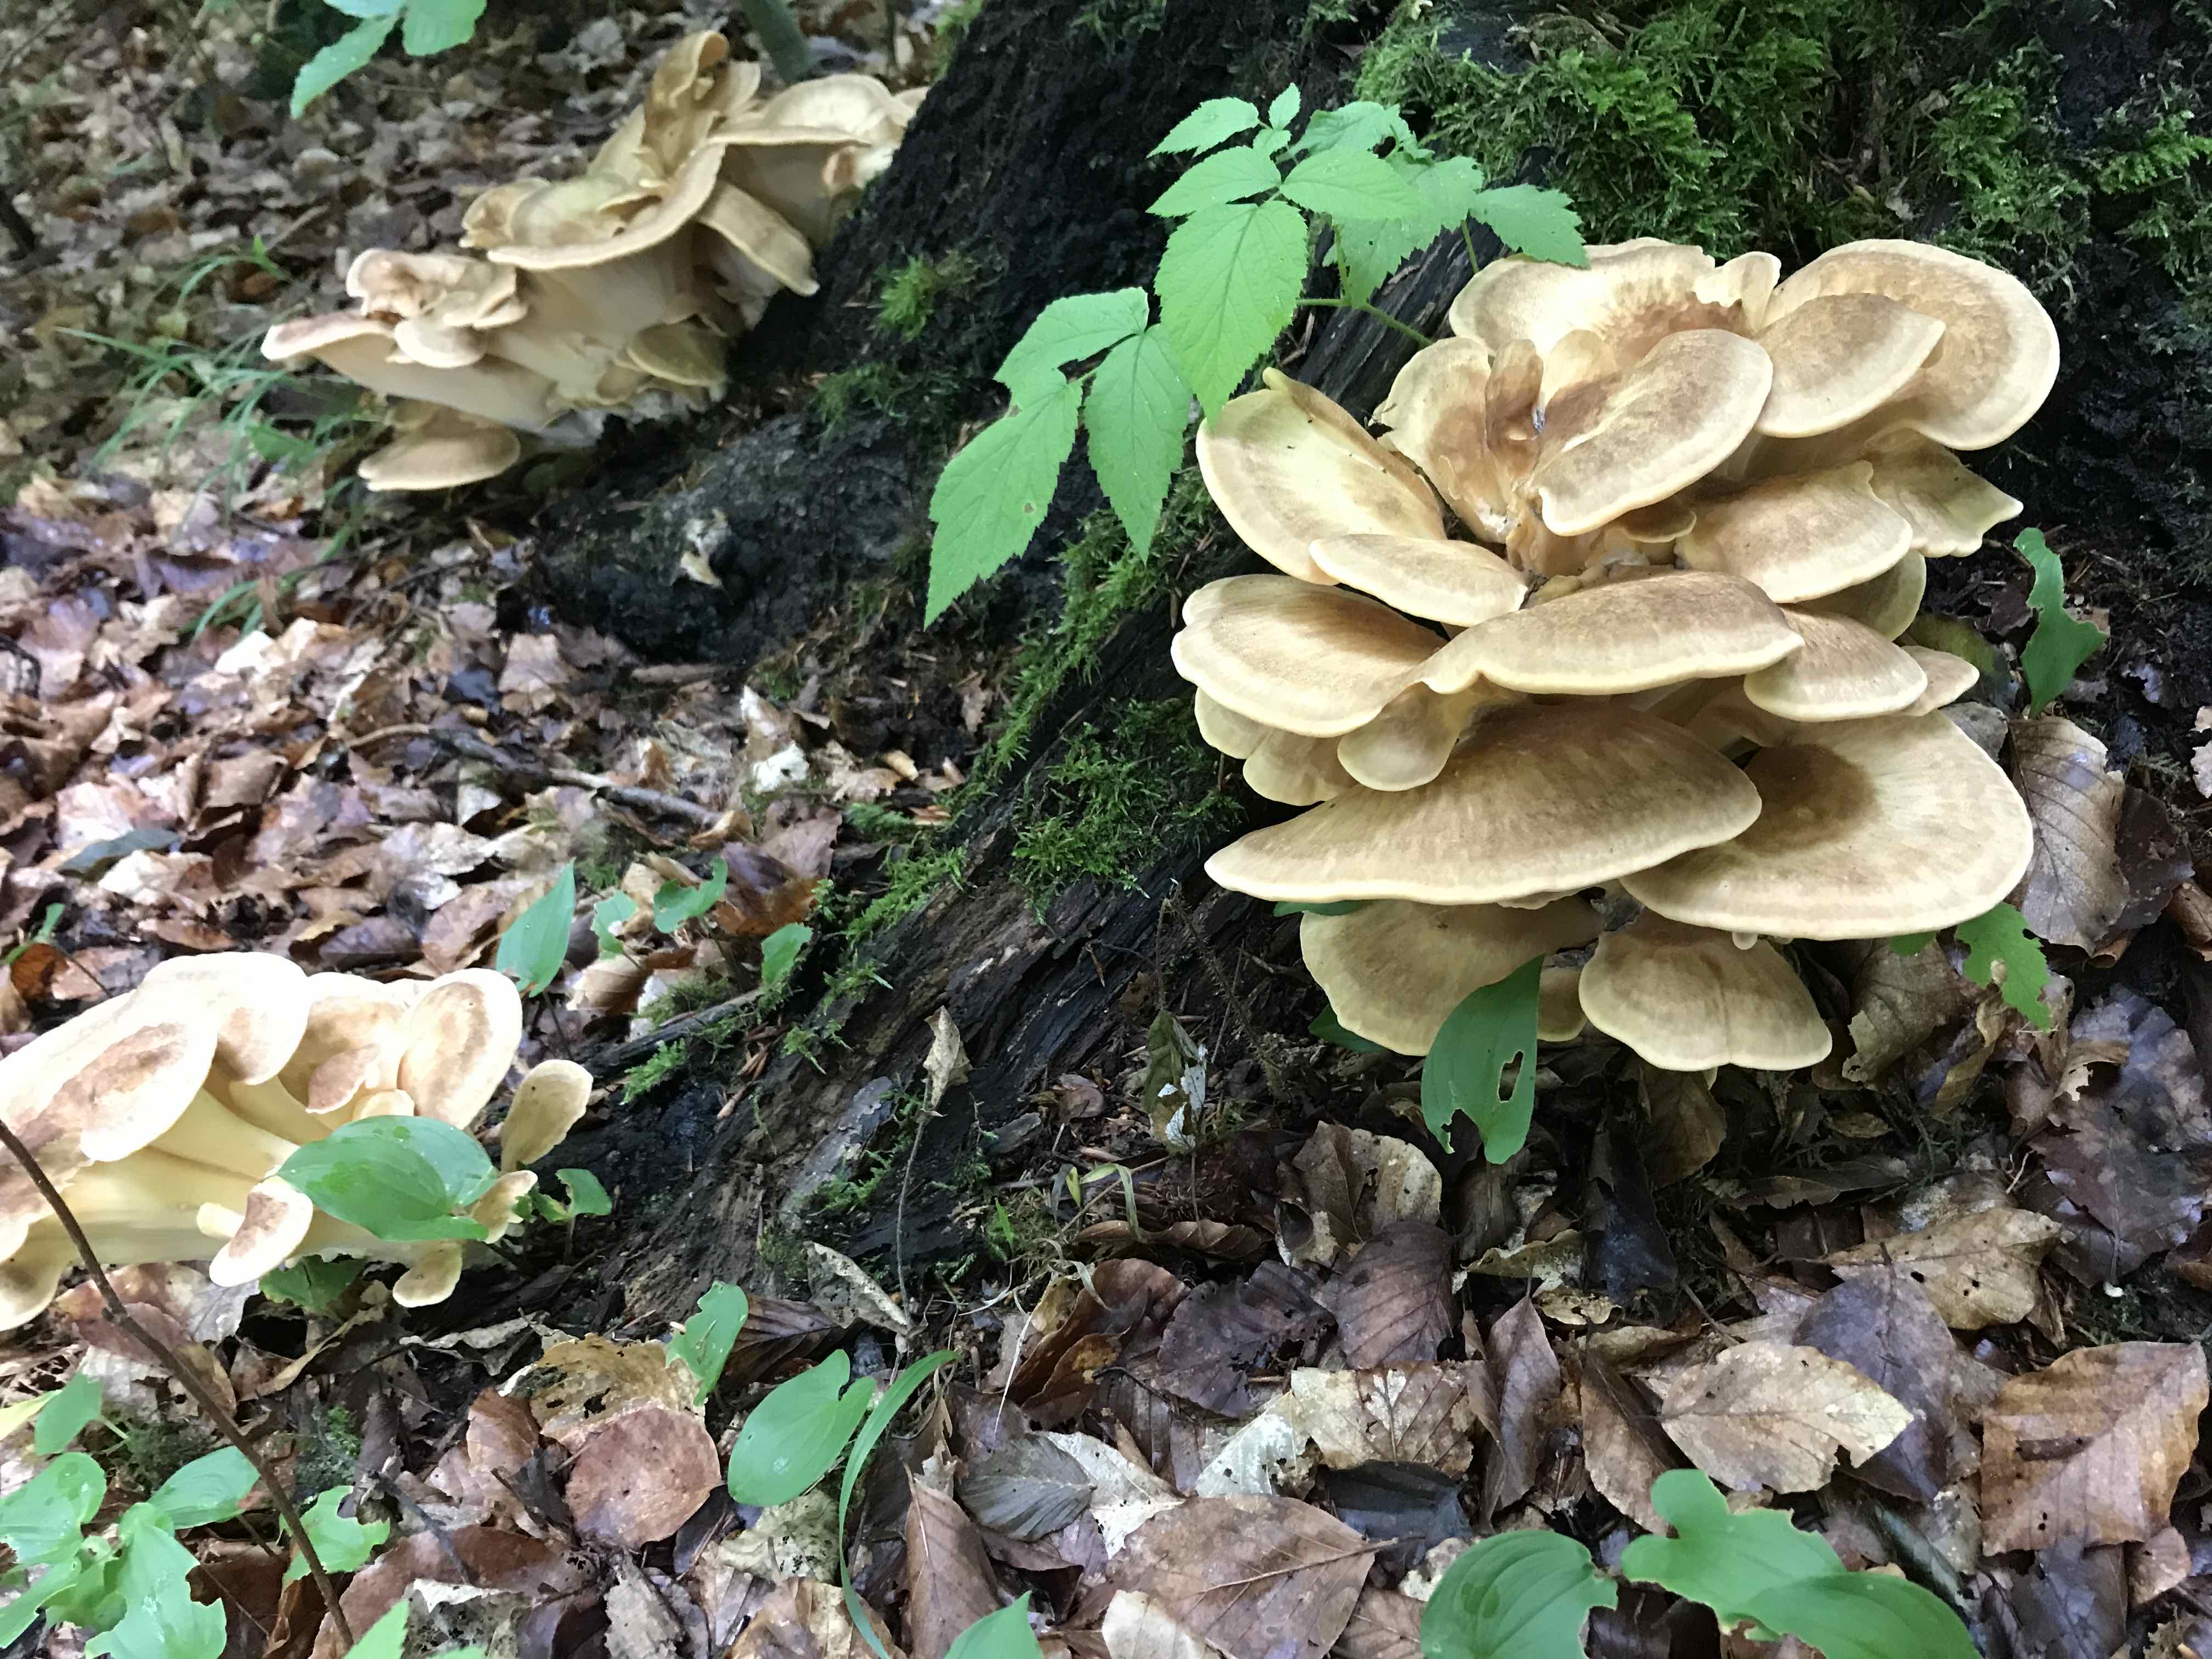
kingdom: Fungi
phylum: Basidiomycota
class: Agaricomycetes
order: Polyporales
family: Meripilaceae
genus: Meripilus
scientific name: Meripilus giganteus
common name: kæmpeporesvamp
